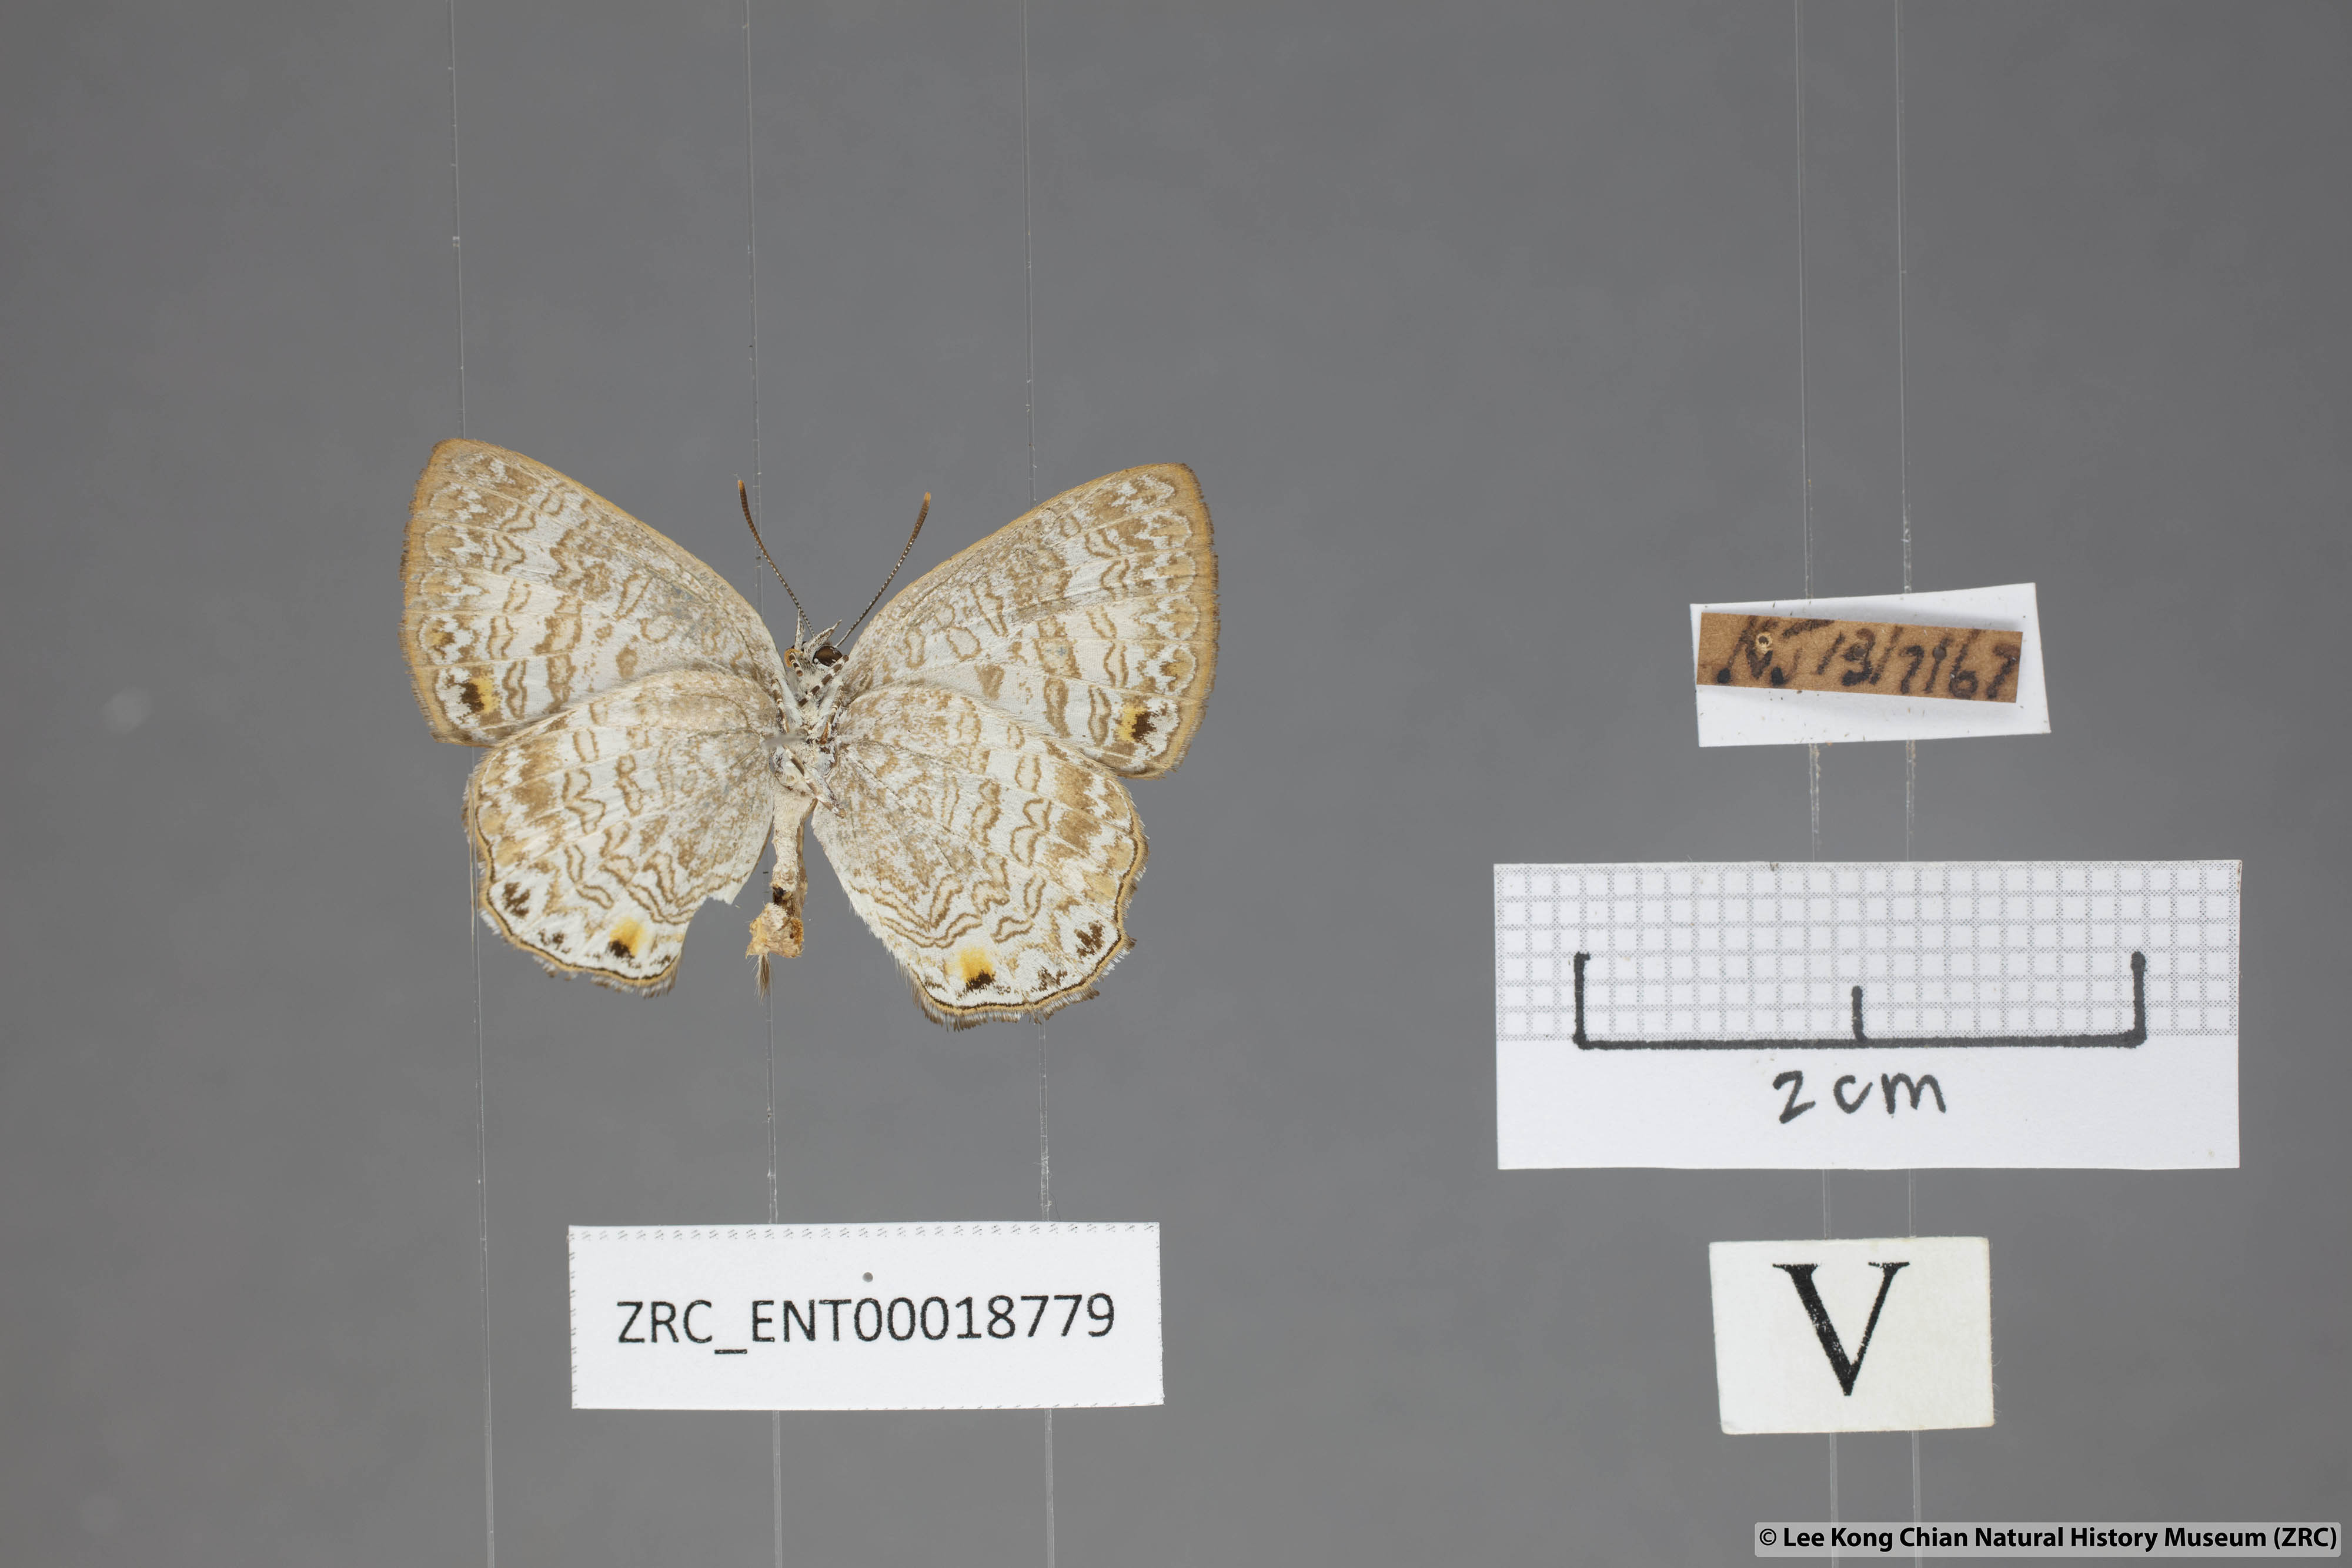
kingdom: Animalia
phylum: Arthropoda
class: Insecta
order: Lepidoptera
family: Lycaenidae
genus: Poritia
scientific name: Poritia erycinoides
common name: Blue gem
